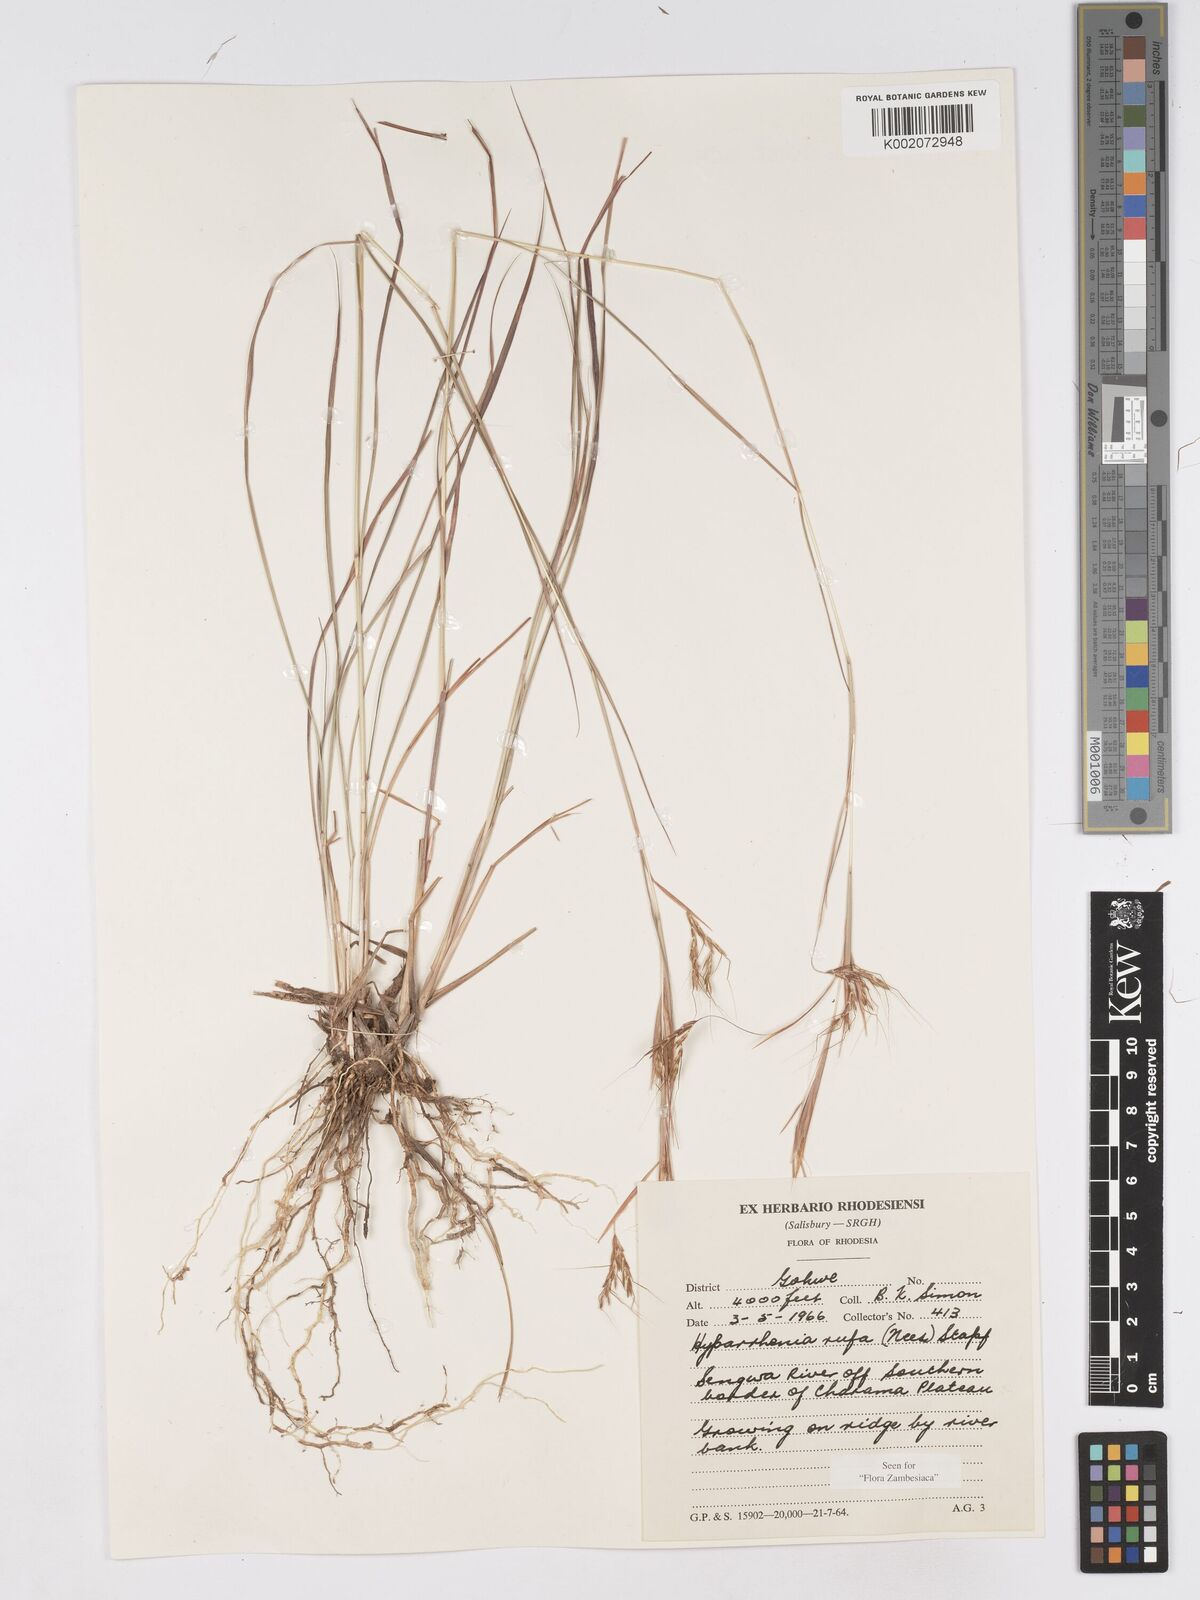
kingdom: Plantae
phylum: Tracheophyta
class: Liliopsida
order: Poales
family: Poaceae
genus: Hyparrhenia
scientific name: Hyparrhenia rufa
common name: Jaraguagrass
